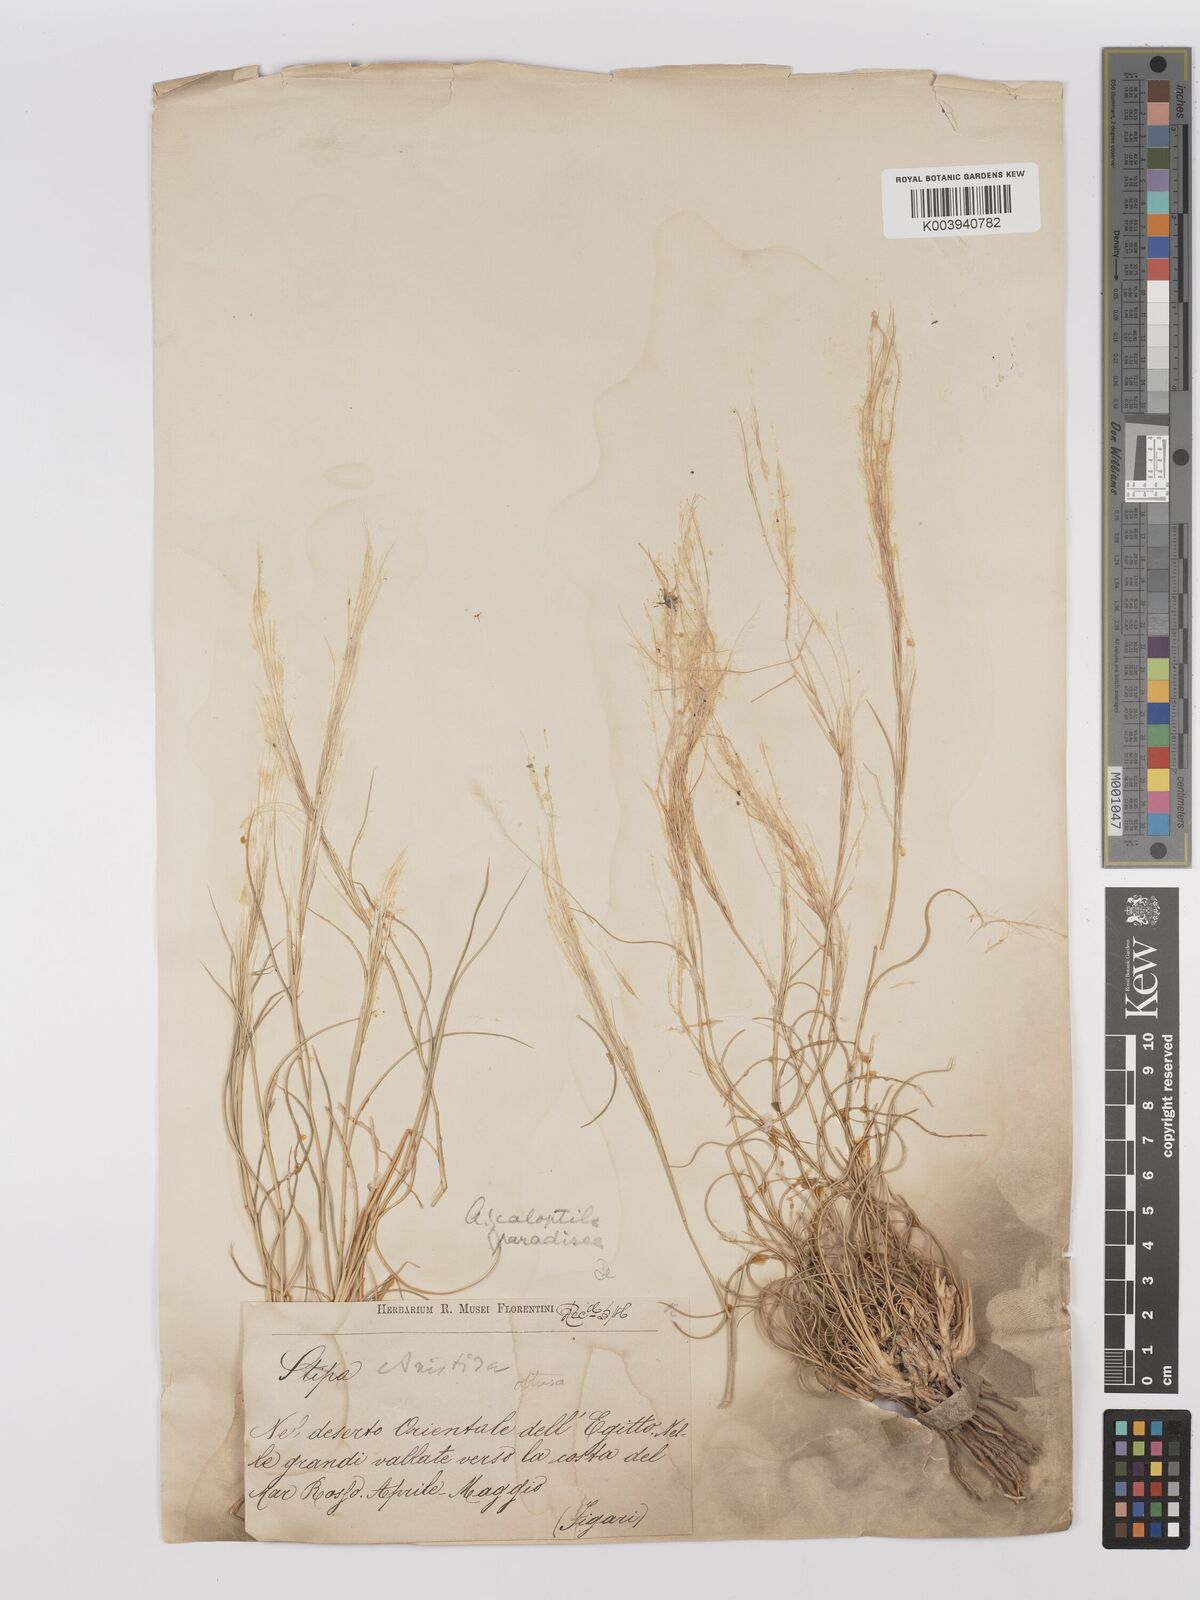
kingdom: Plantae
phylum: Tracheophyta
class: Liliopsida
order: Poales
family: Poaceae
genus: Stipagrostis
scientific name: Stipagrostis raddiana
